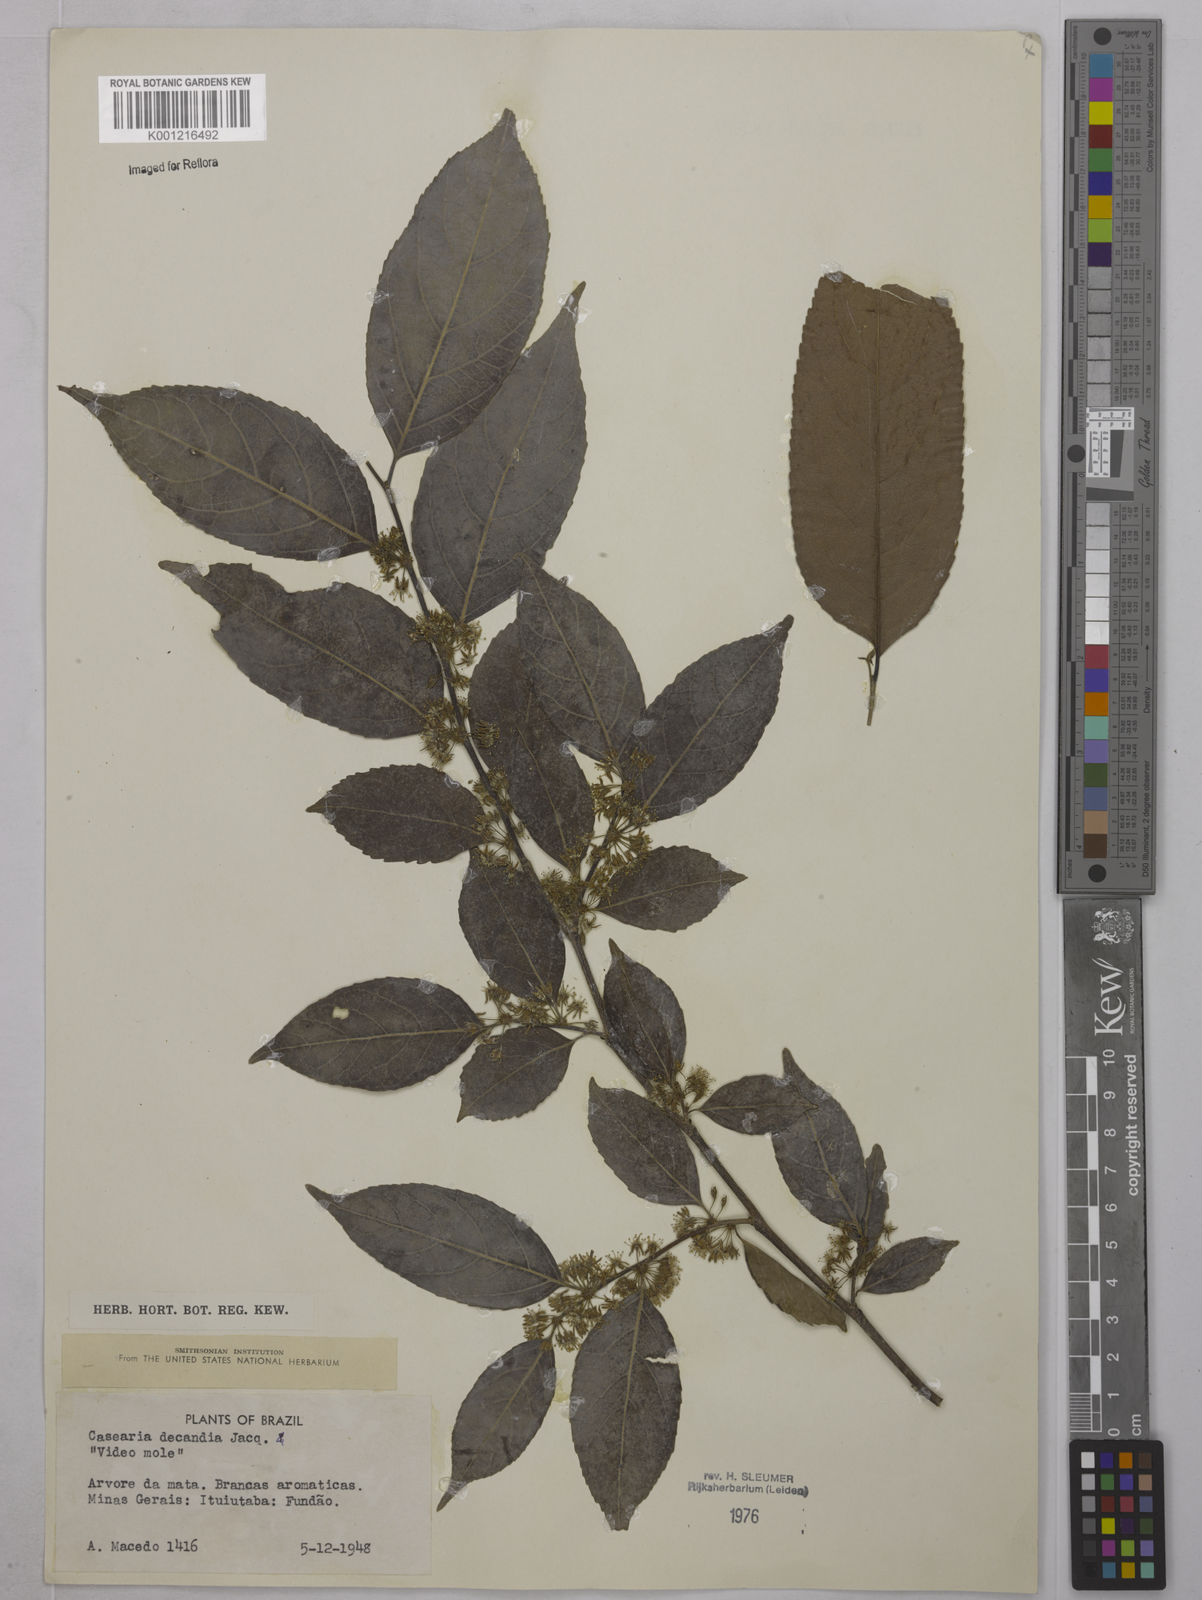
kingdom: Plantae
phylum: Tracheophyta
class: Magnoliopsida
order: Malpighiales
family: Salicaceae
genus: Casearia
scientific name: Casearia decandra
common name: Crack open
